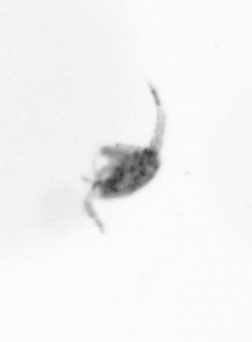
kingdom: Animalia
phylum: Arthropoda
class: Copepoda
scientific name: Copepoda
